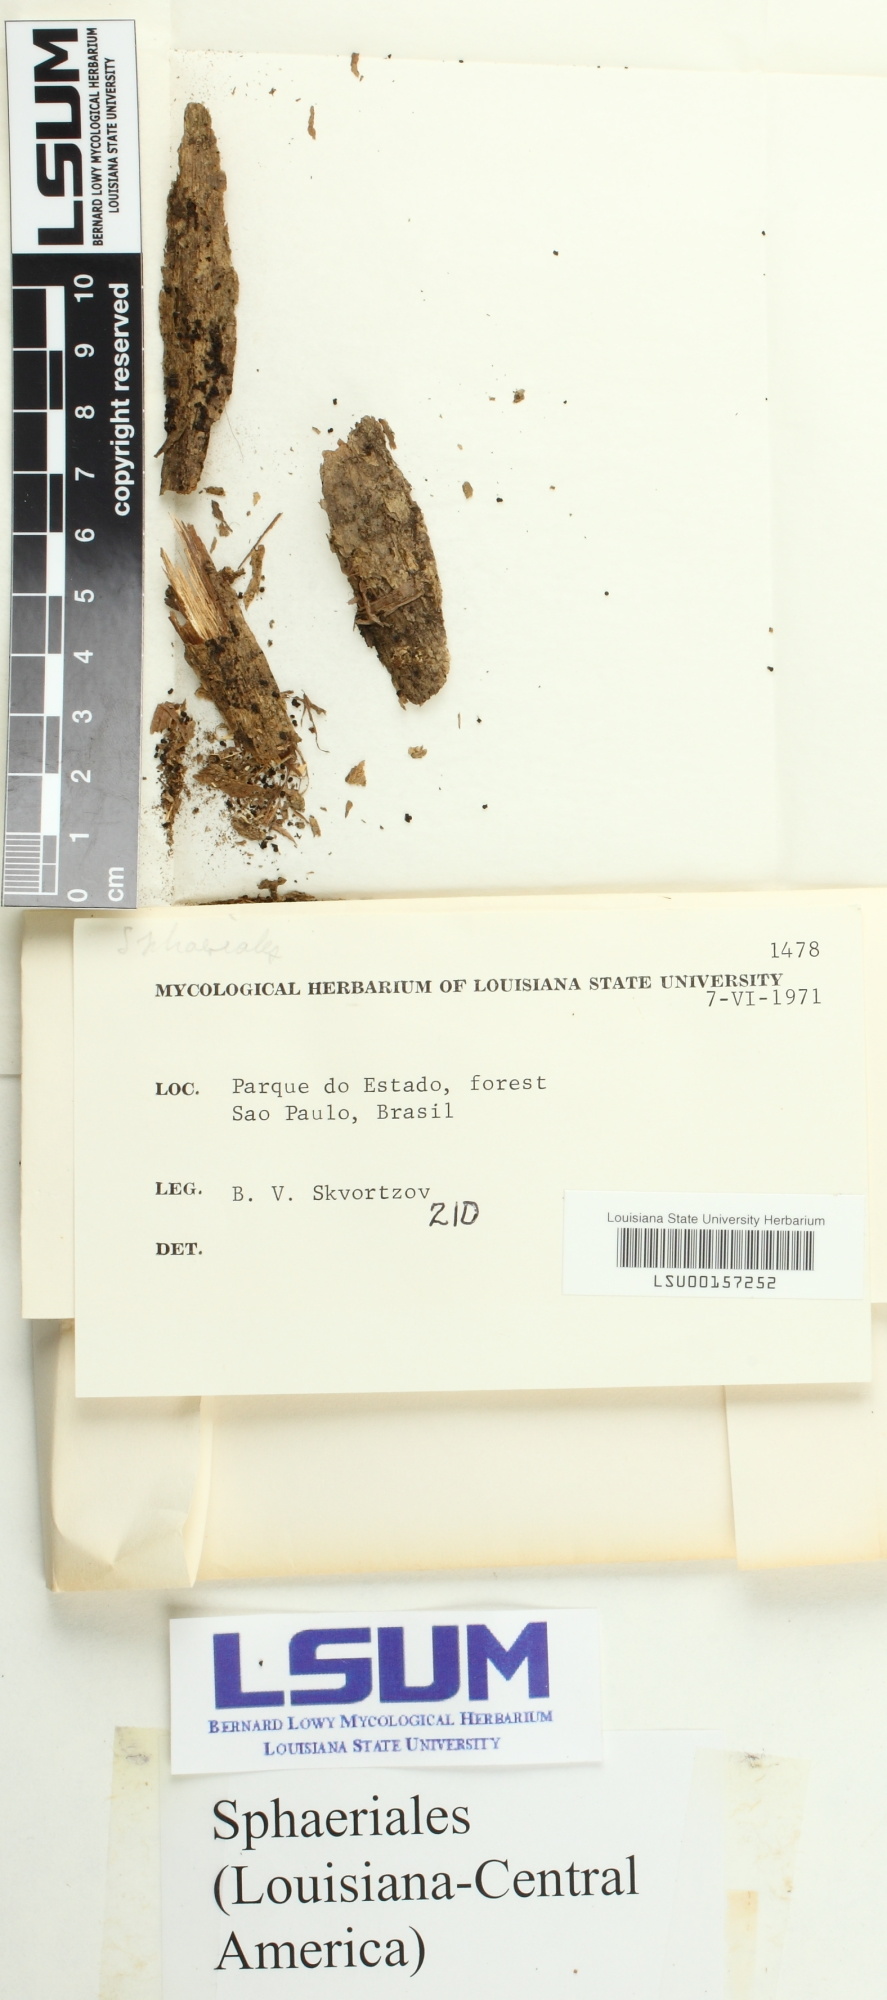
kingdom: Fungi
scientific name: Fungi
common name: Fungi
